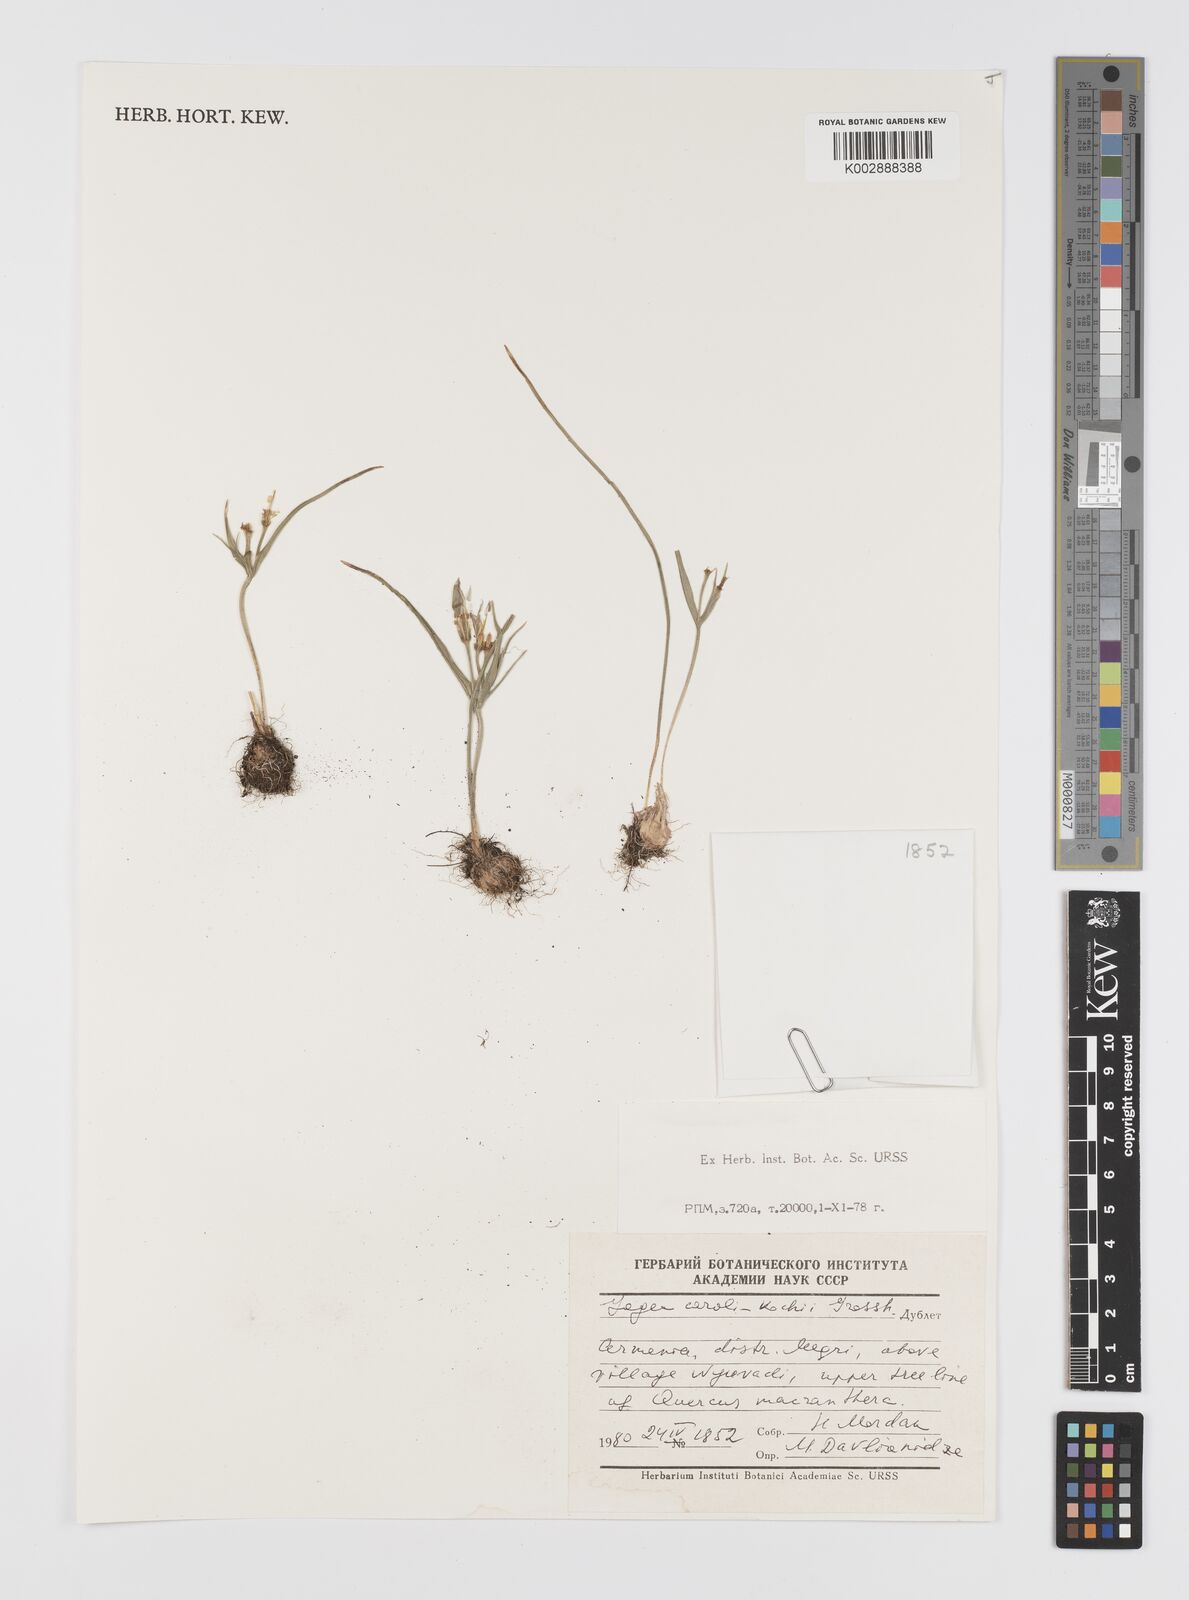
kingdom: Plantae
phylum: Tracheophyta
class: Liliopsida
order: Liliales
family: Liliaceae
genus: Gagea
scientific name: Gagea caroli-kochii
